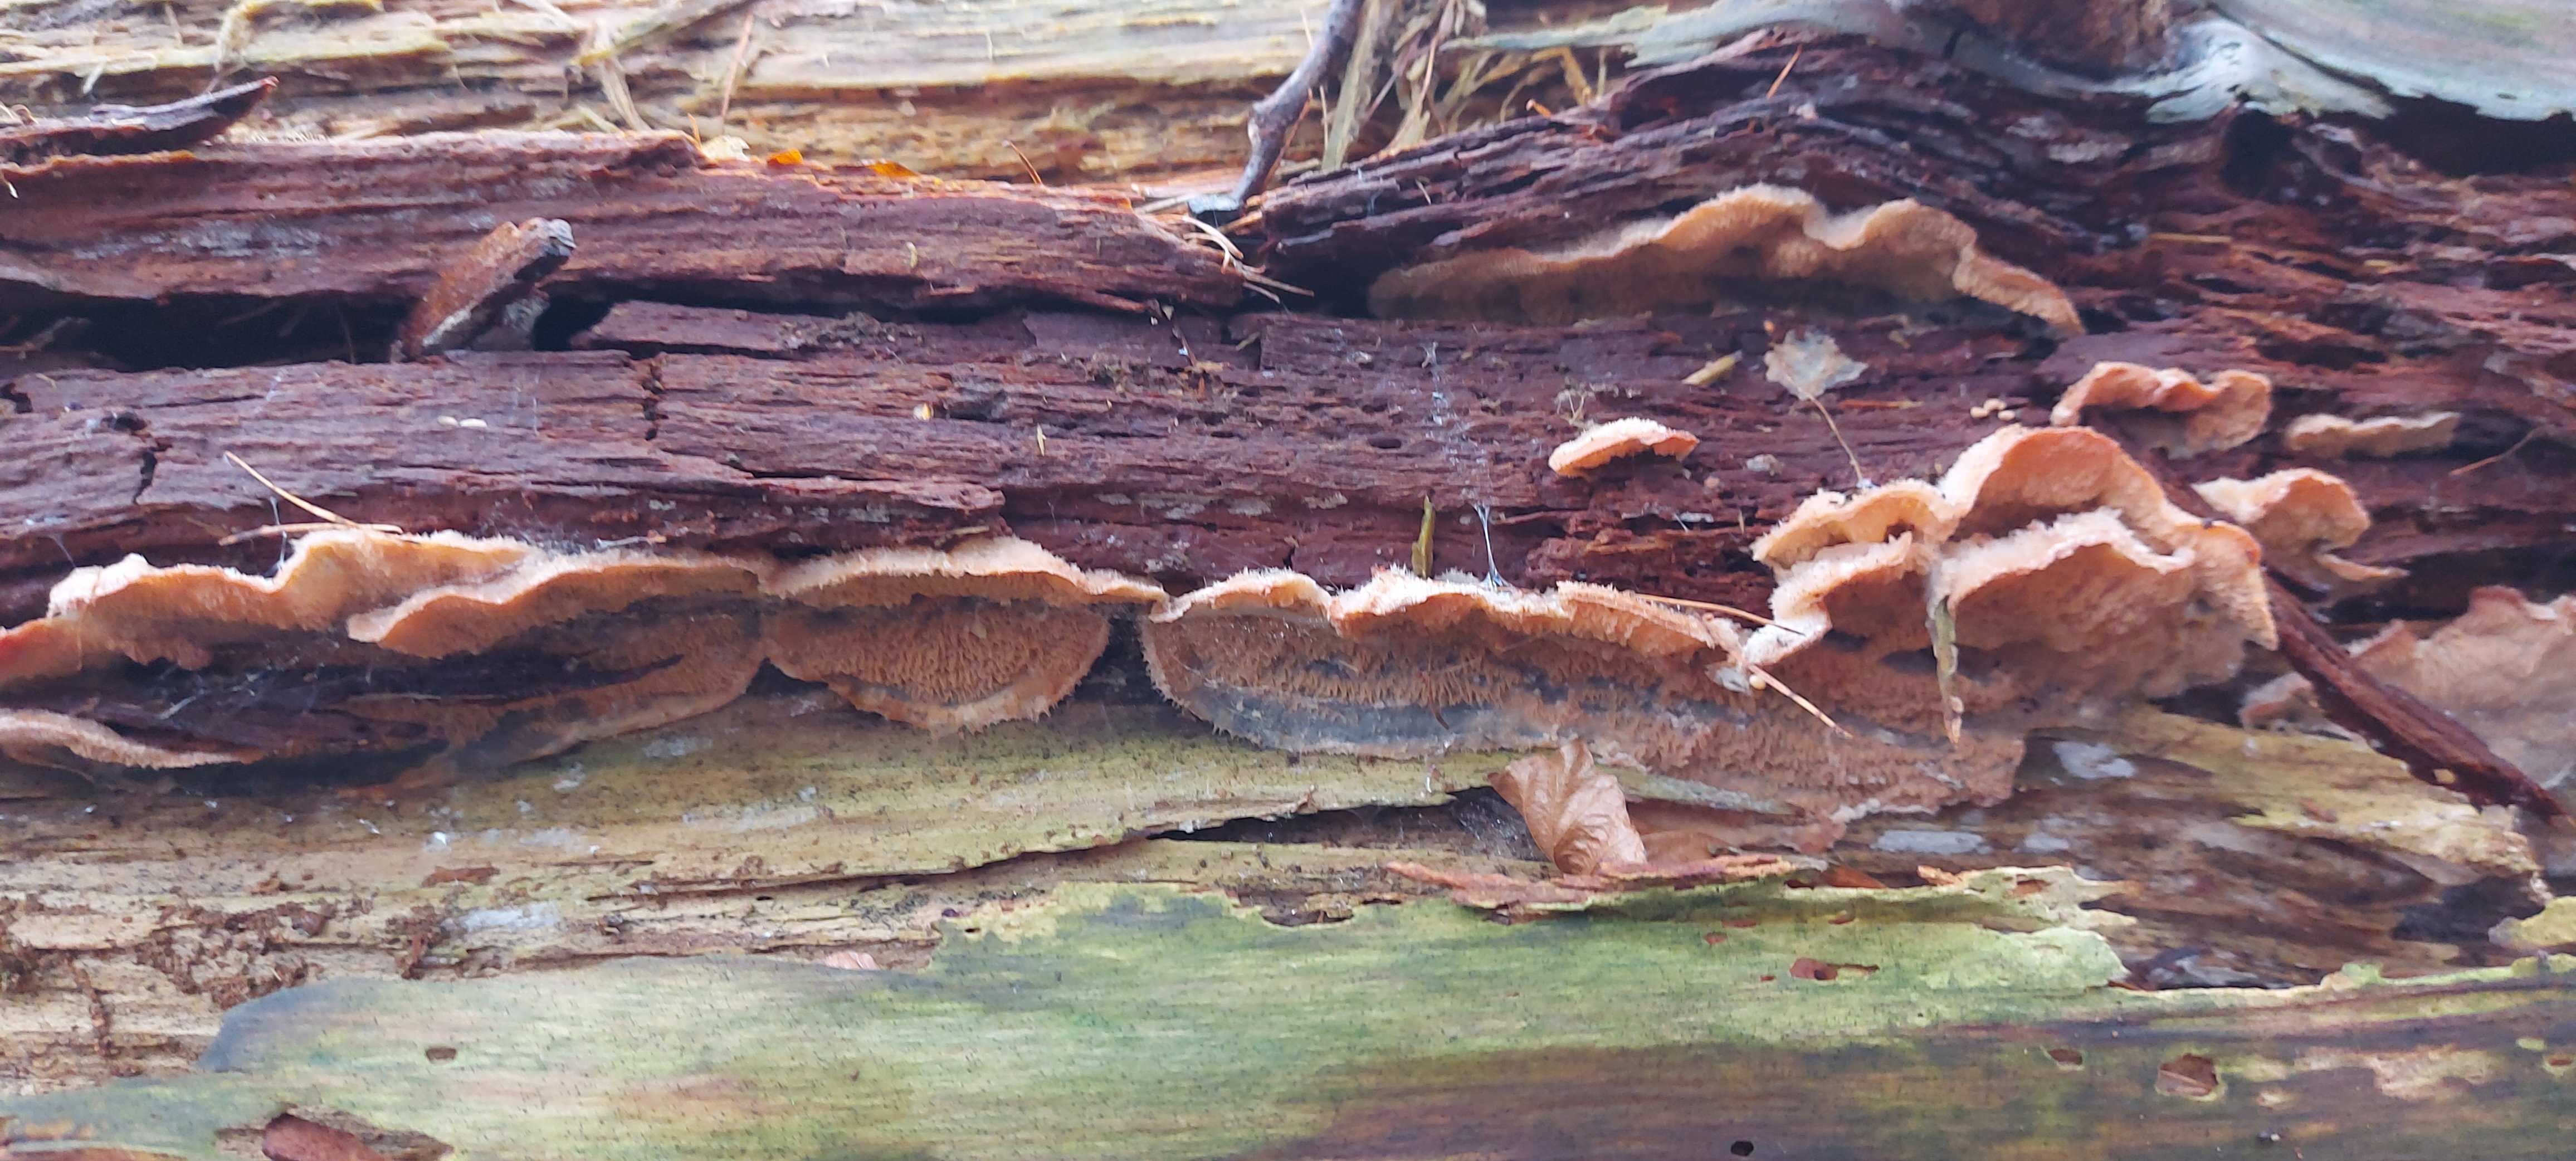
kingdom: Fungi
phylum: Basidiomycota
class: Agaricomycetes
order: Polyporales
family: Meruliaceae
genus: Phlebia
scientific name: Phlebia tremellosa
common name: bævrende åresvamp
